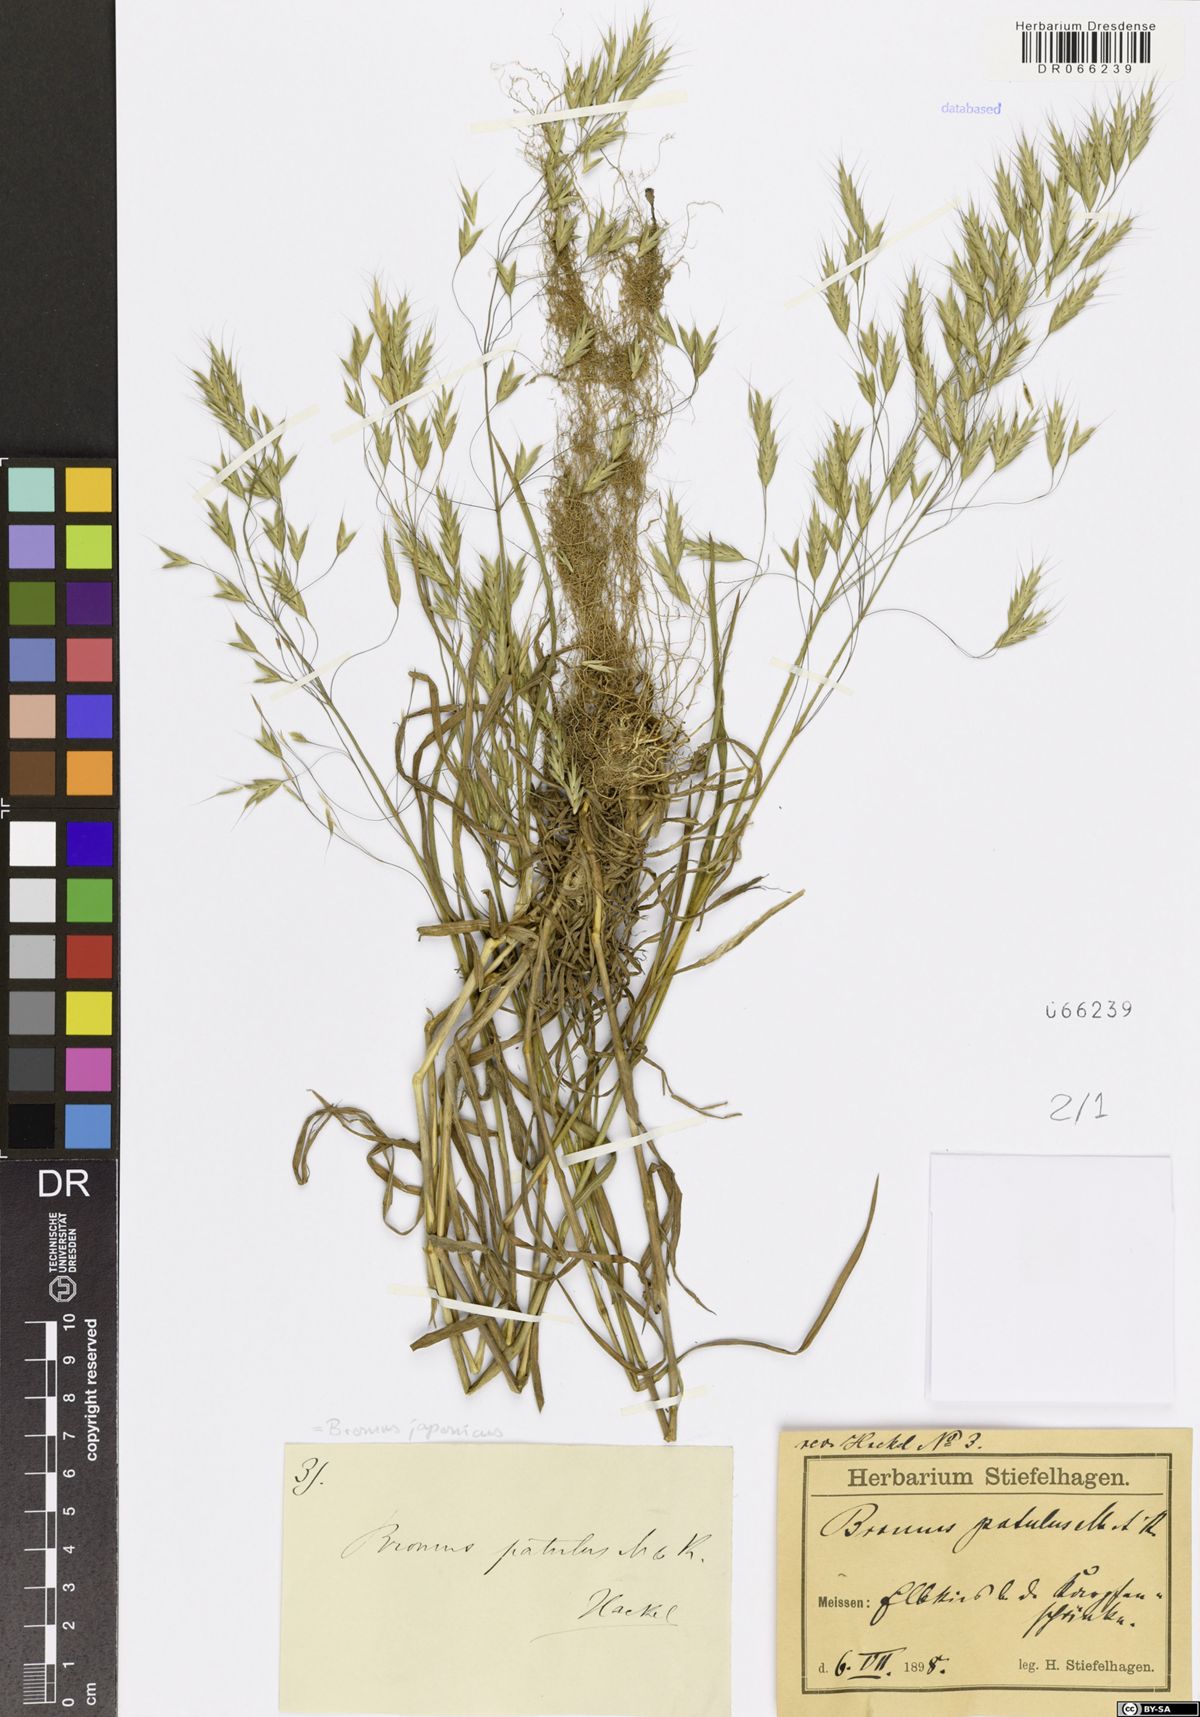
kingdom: Plantae
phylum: Tracheophyta
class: Liliopsida
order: Poales
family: Poaceae
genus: Bromus
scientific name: Bromus japonicus
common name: Japanese brome
